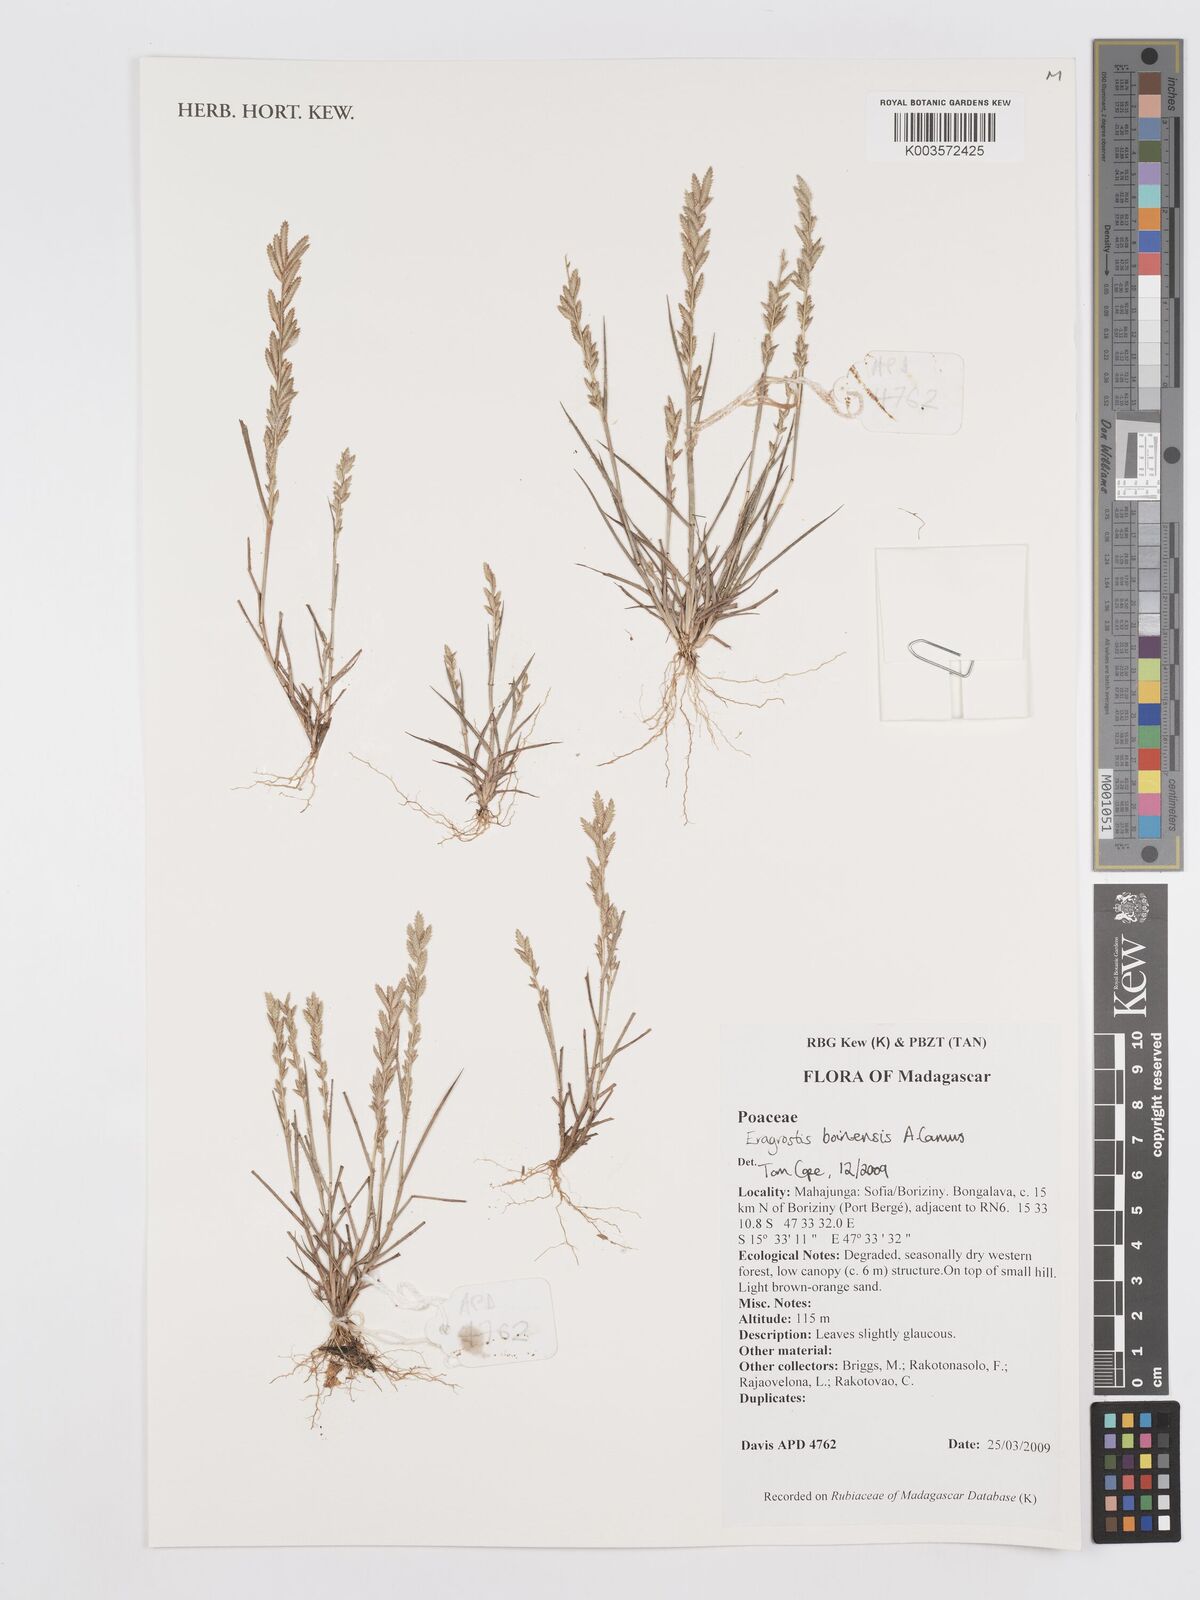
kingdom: Plantae
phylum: Tracheophyta
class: Liliopsida
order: Poales
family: Poaceae
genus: Eragrostis
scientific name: Eragrostis boinensis
